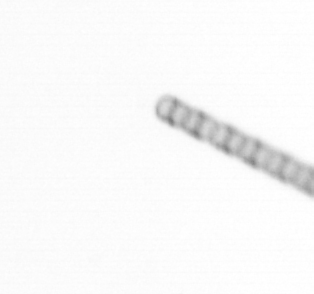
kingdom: Chromista
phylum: Ochrophyta
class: Bacillariophyceae
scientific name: Bacillariophyceae
